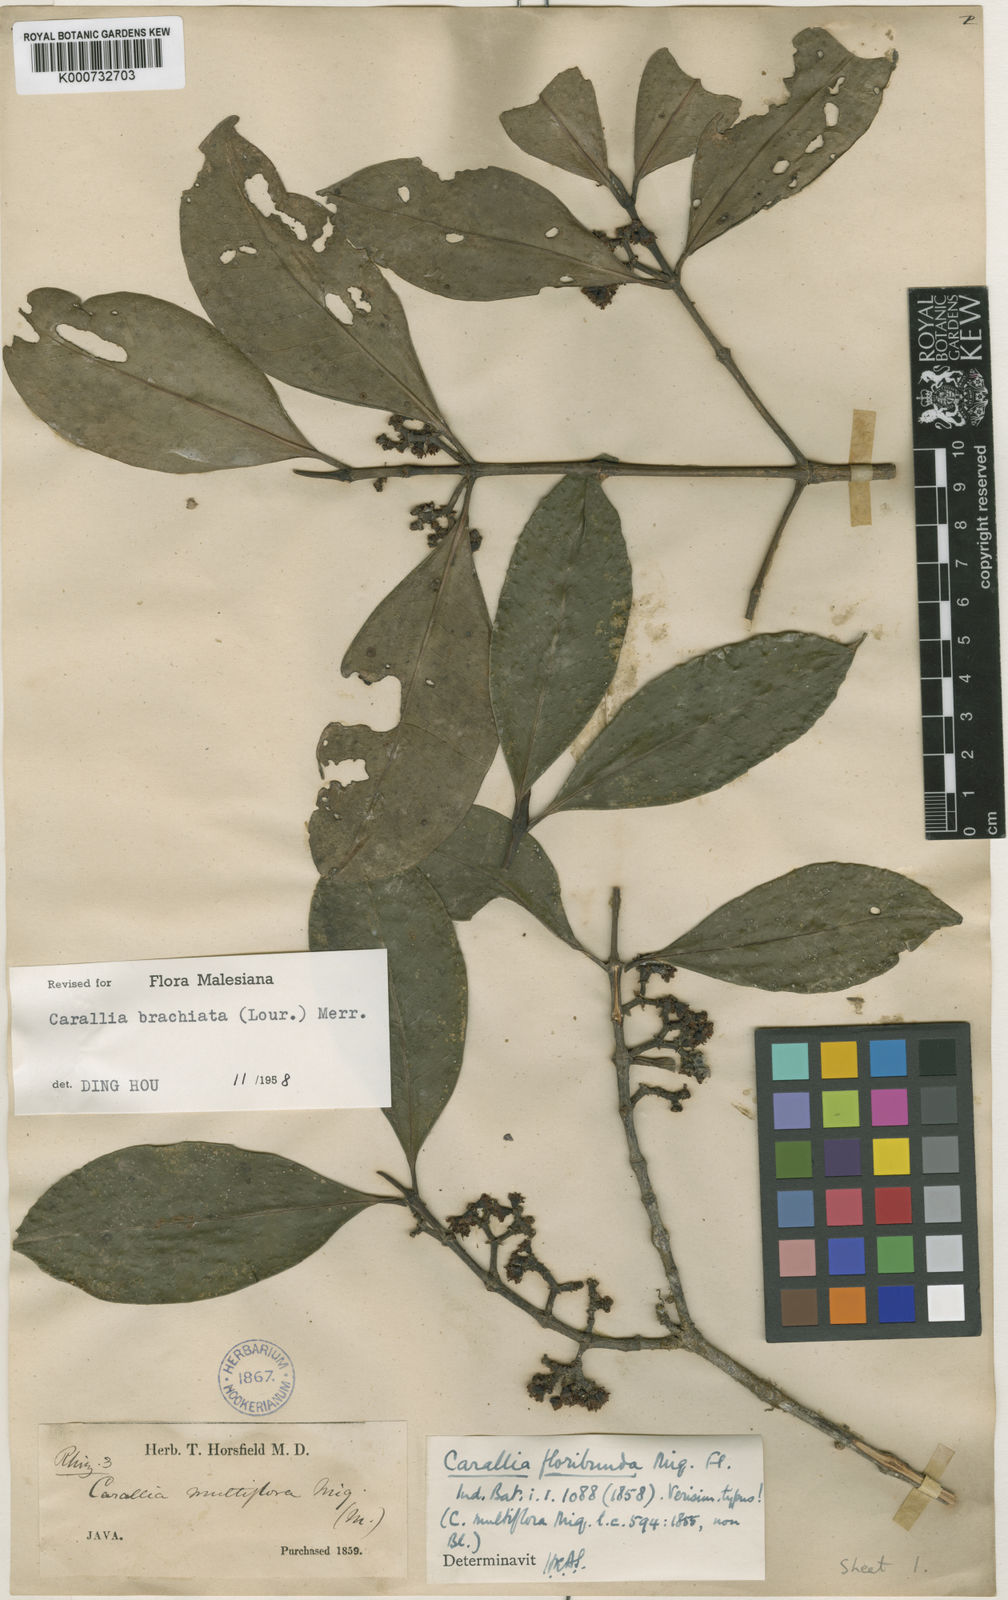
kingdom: Plantae
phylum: Tracheophyta
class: Magnoliopsida
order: Malpighiales
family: Rhizophoraceae
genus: Carallia
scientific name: Carallia brachiata
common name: Carallawood
